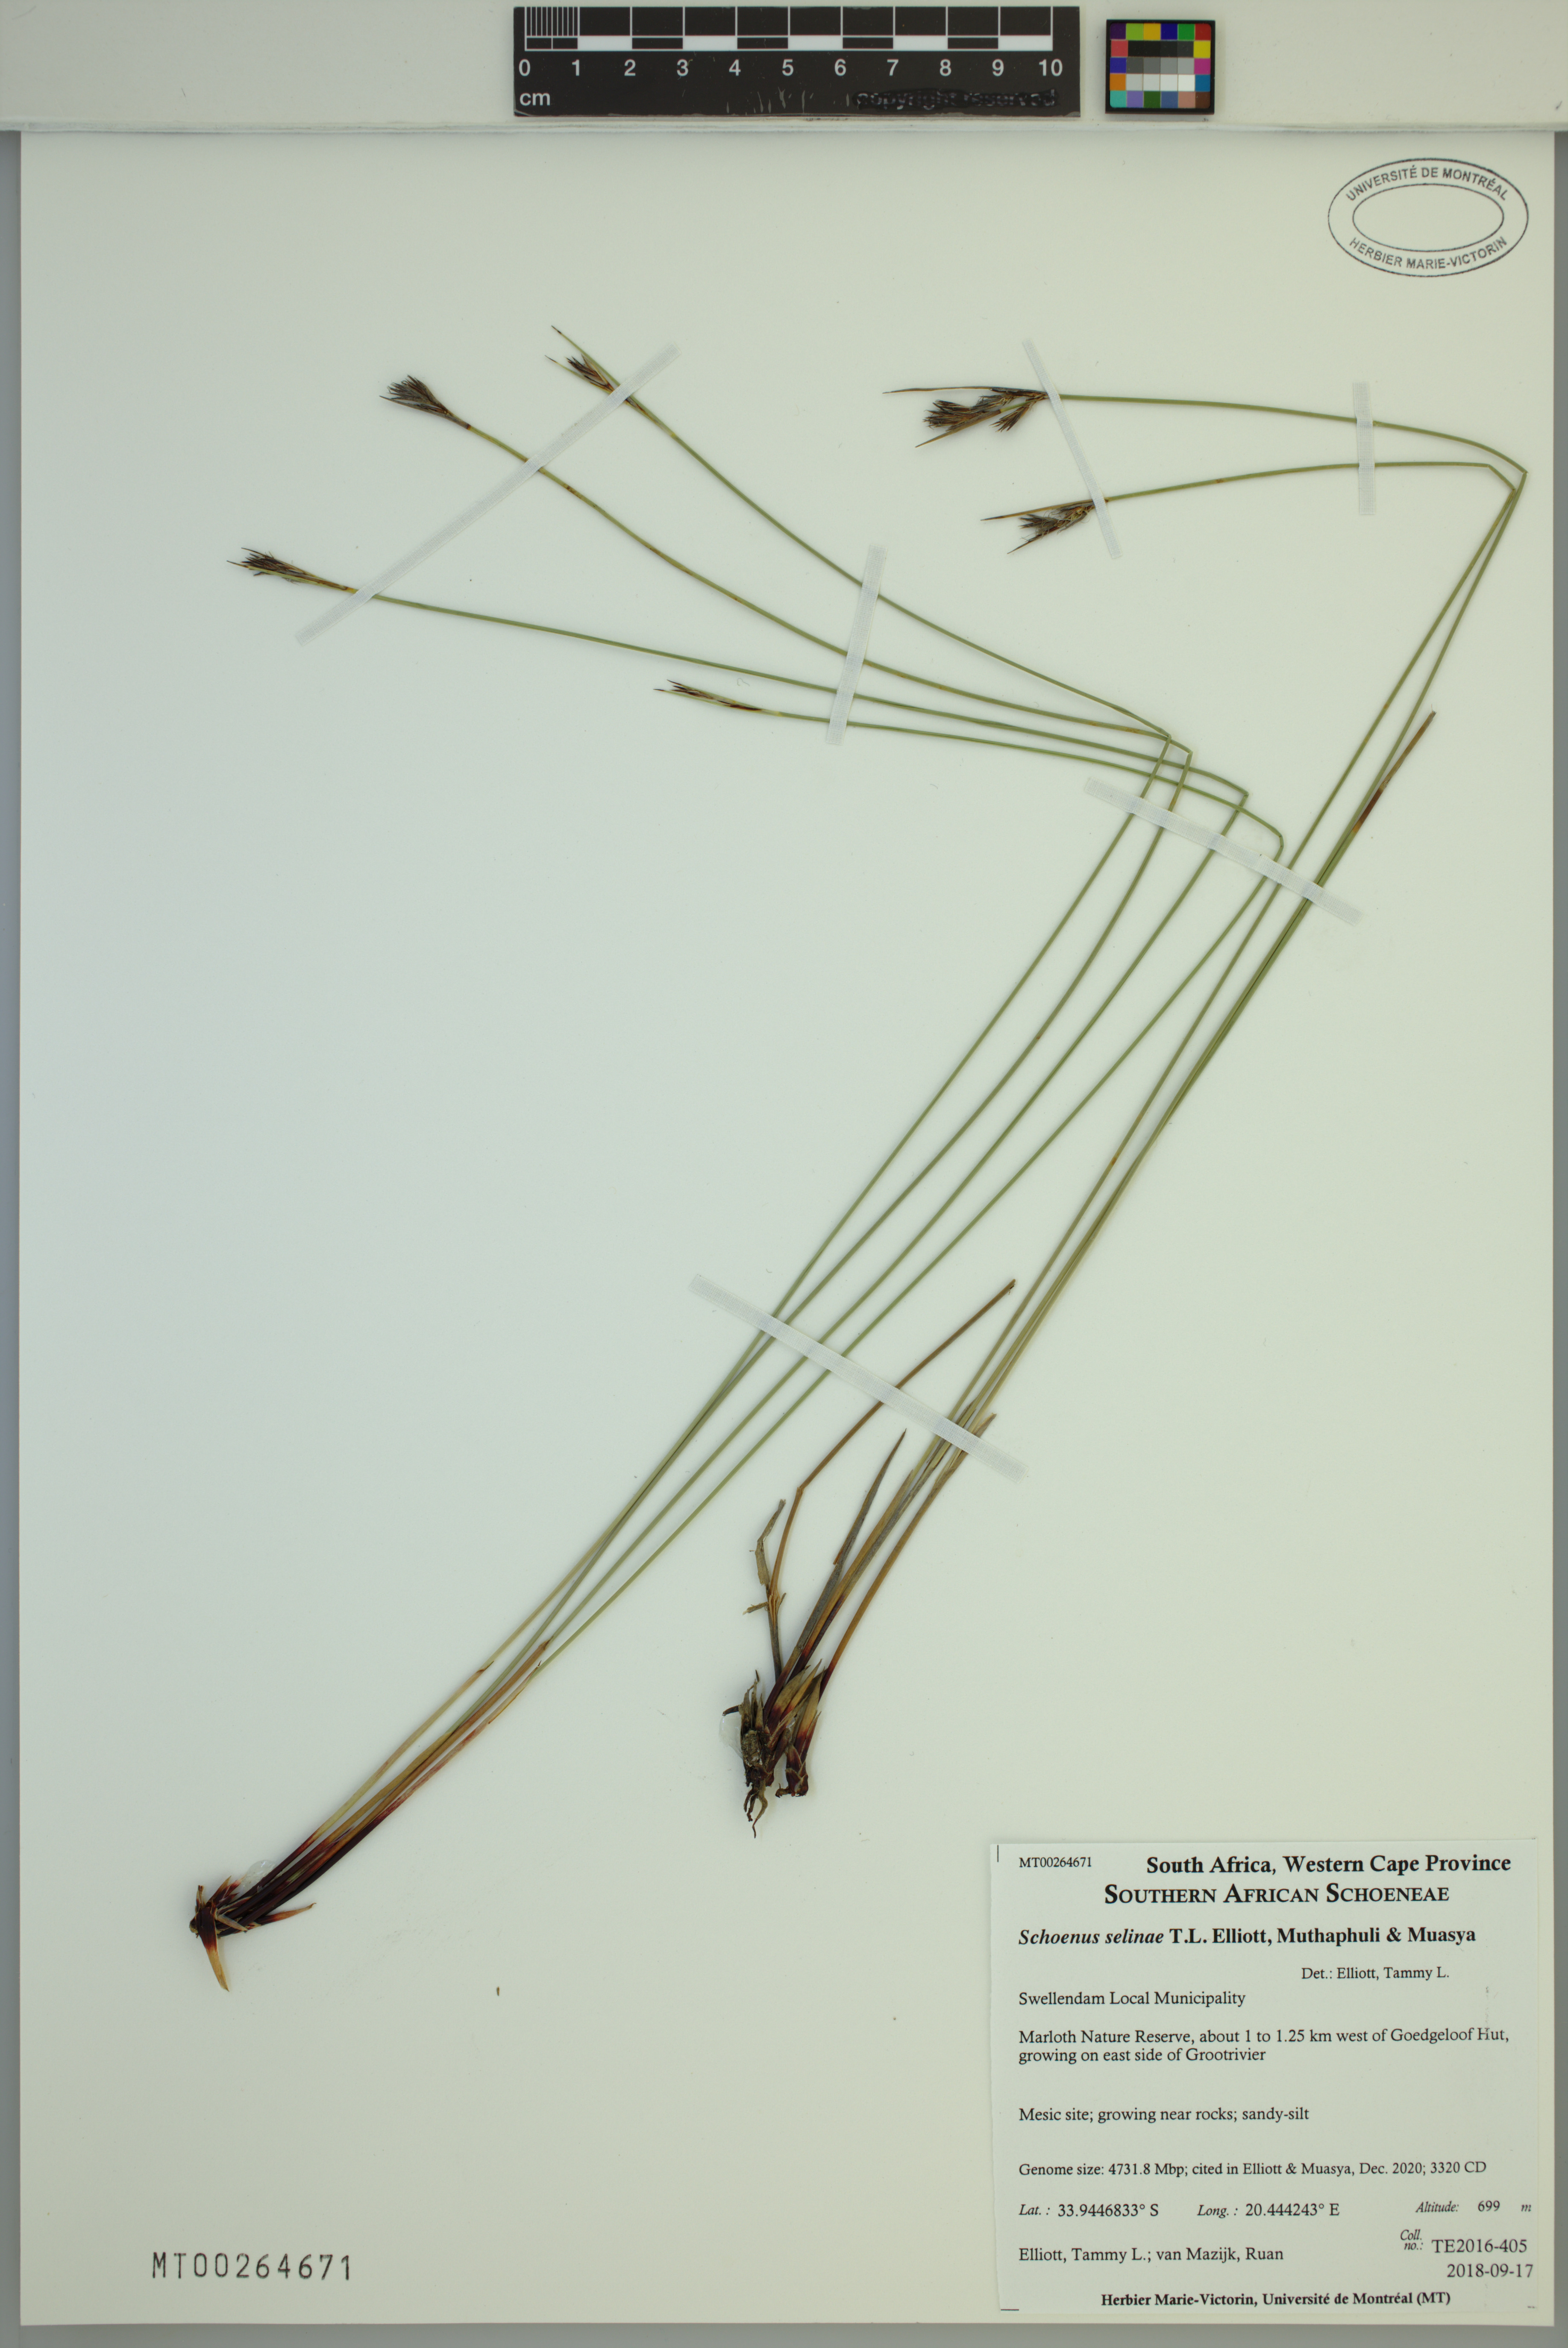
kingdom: Plantae
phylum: Tracheophyta
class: Liliopsida
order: Poales
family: Cyperaceae
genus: Schoenus
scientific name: Schoenus selinae
